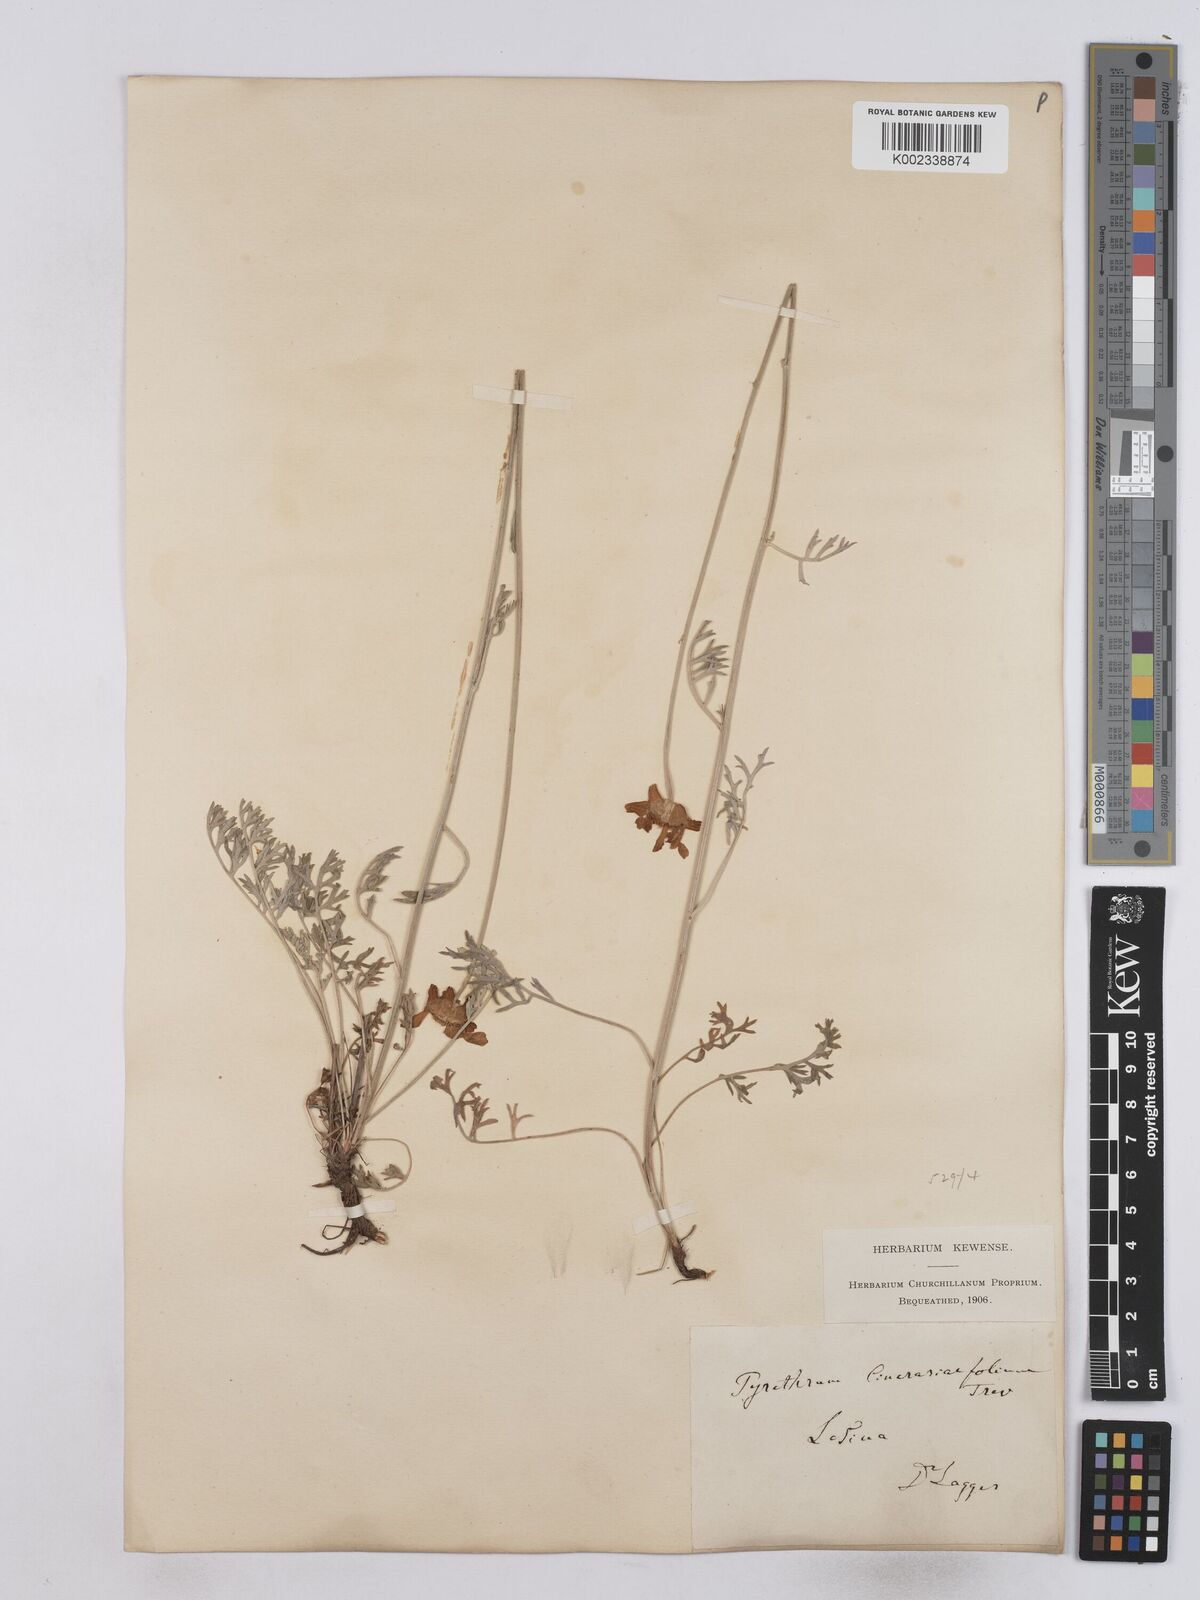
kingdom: Plantae
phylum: Tracheophyta
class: Magnoliopsida
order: Asterales
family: Asteraceae
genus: Tanacetum
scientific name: Tanacetum cinerariifolium
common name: Dalmatian pyrethrum
